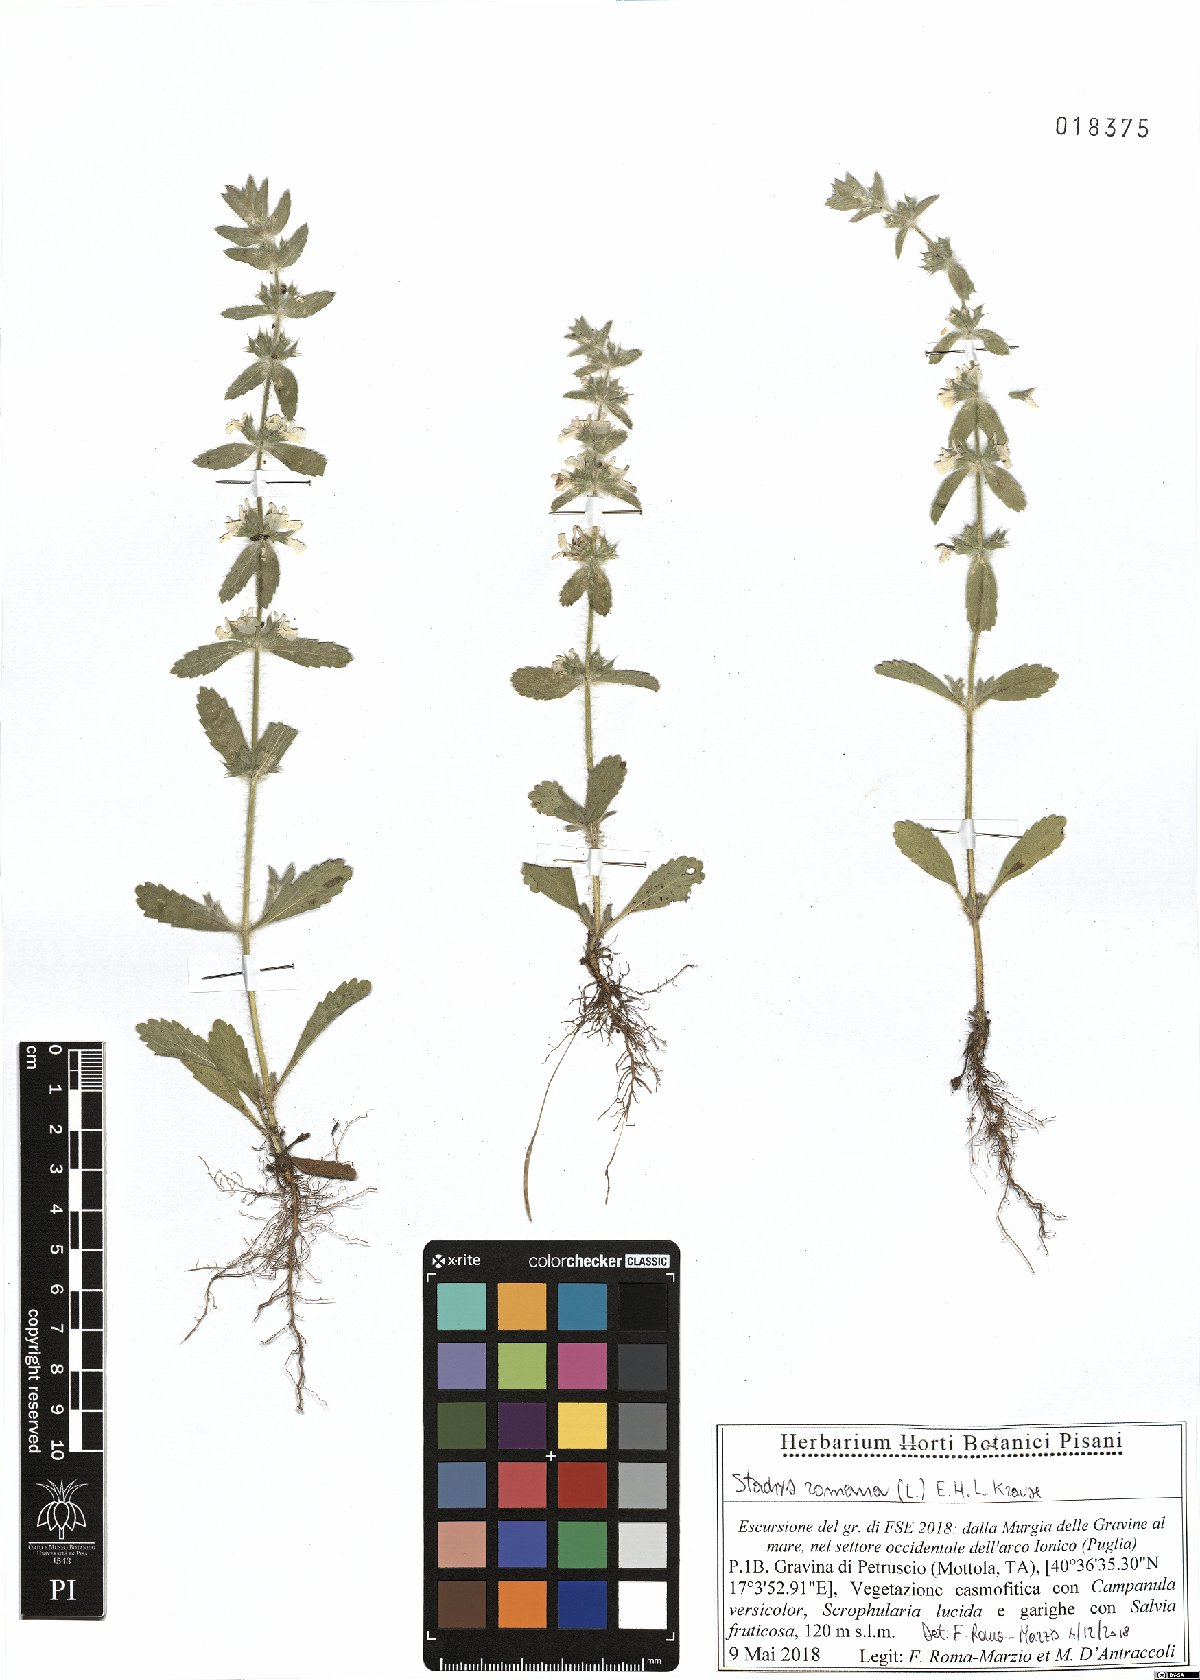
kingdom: Plantae
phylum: Tracheophyta
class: Magnoliopsida
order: Lamiales
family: Lamiaceae
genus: Sideritis
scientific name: Sideritis romana
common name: Simplebeak ironwort
